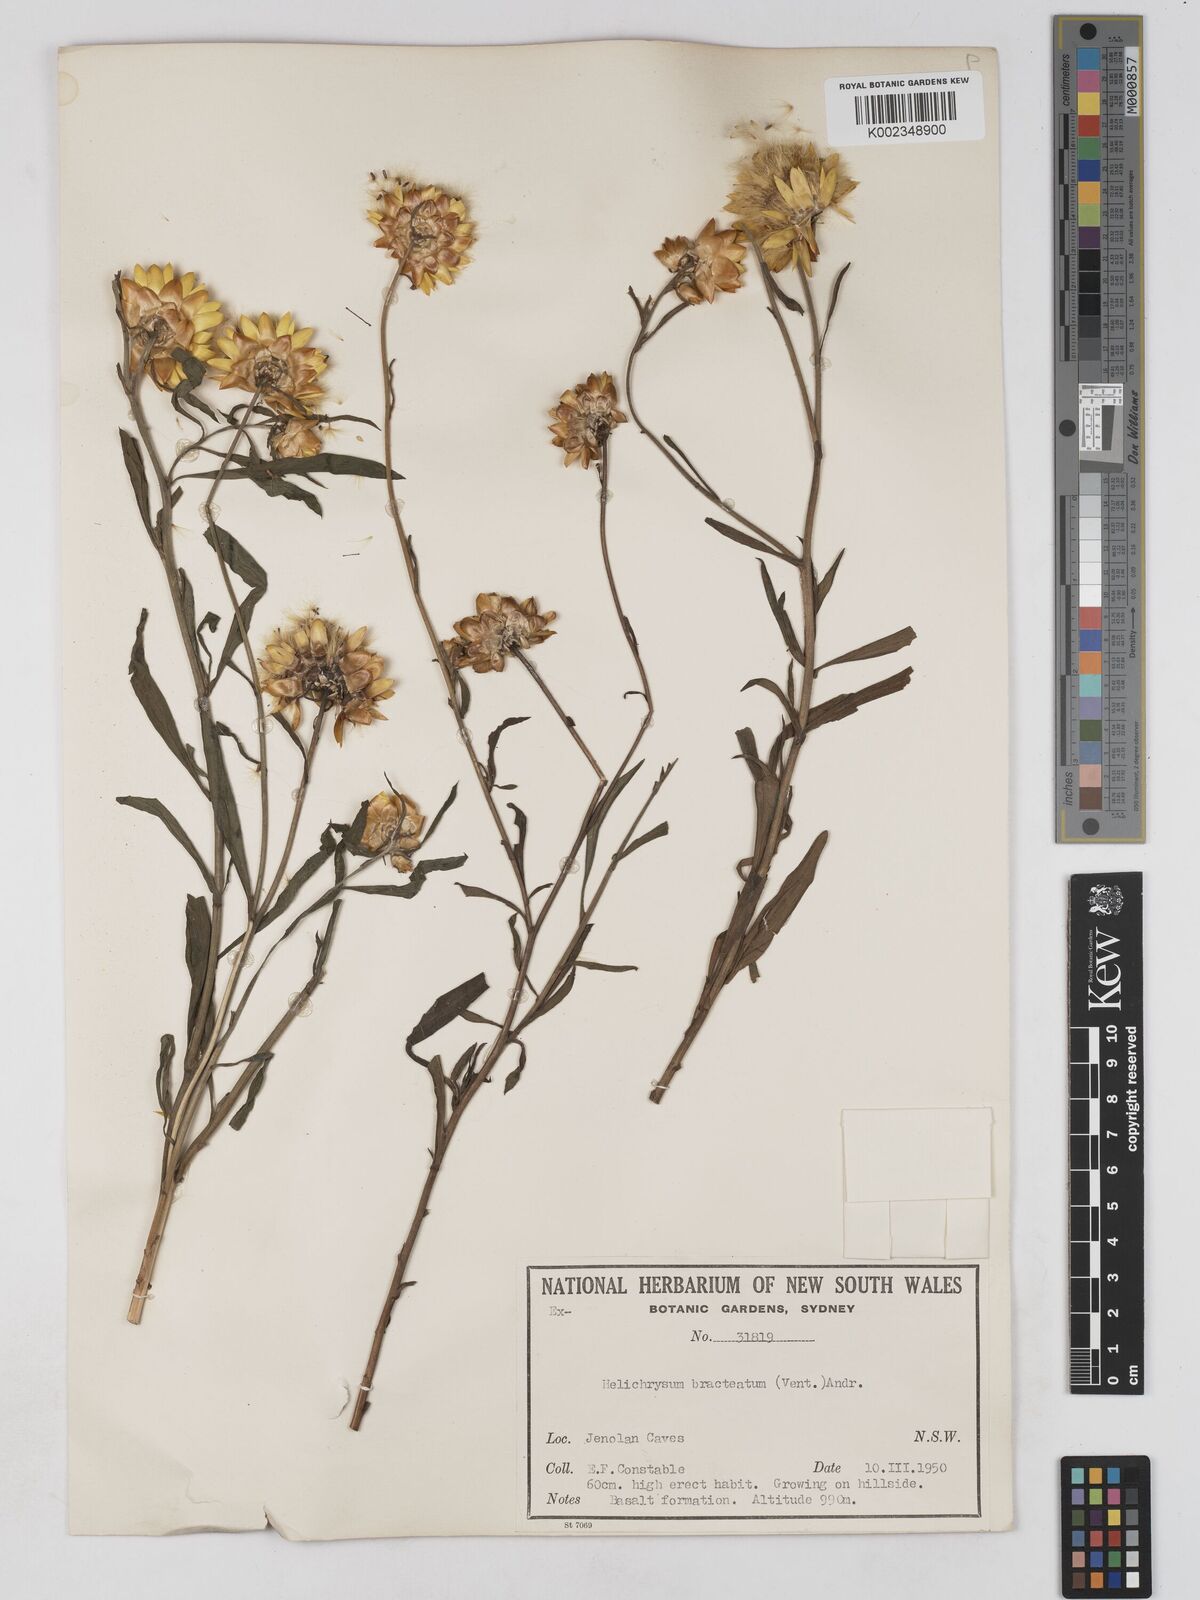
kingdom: Plantae
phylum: Tracheophyta
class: Magnoliopsida
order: Asterales
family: Asteraceae
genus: Xerochrysum
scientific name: Xerochrysum bracteatum
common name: Bracted strawflower
